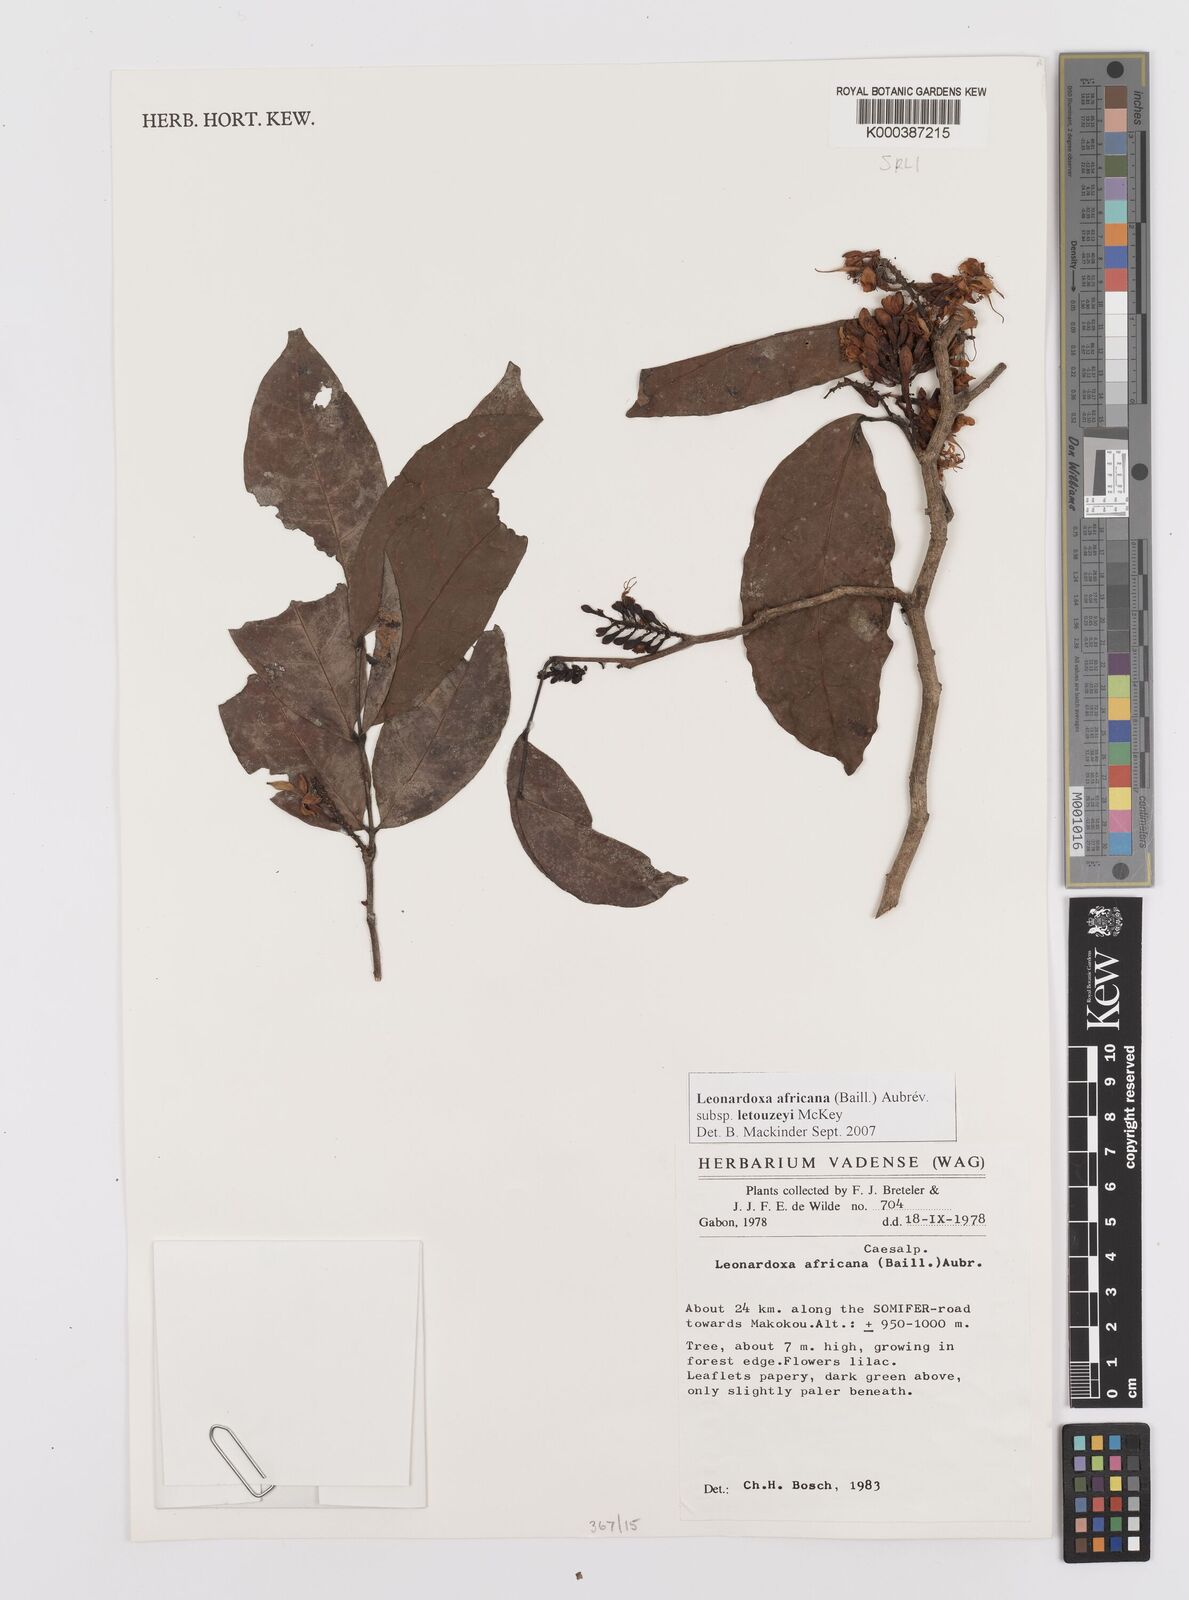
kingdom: Plantae
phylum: Tracheophyta
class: Magnoliopsida
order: Fabales
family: Fabaceae
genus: Leonardoxa
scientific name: Leonardoxa africana
